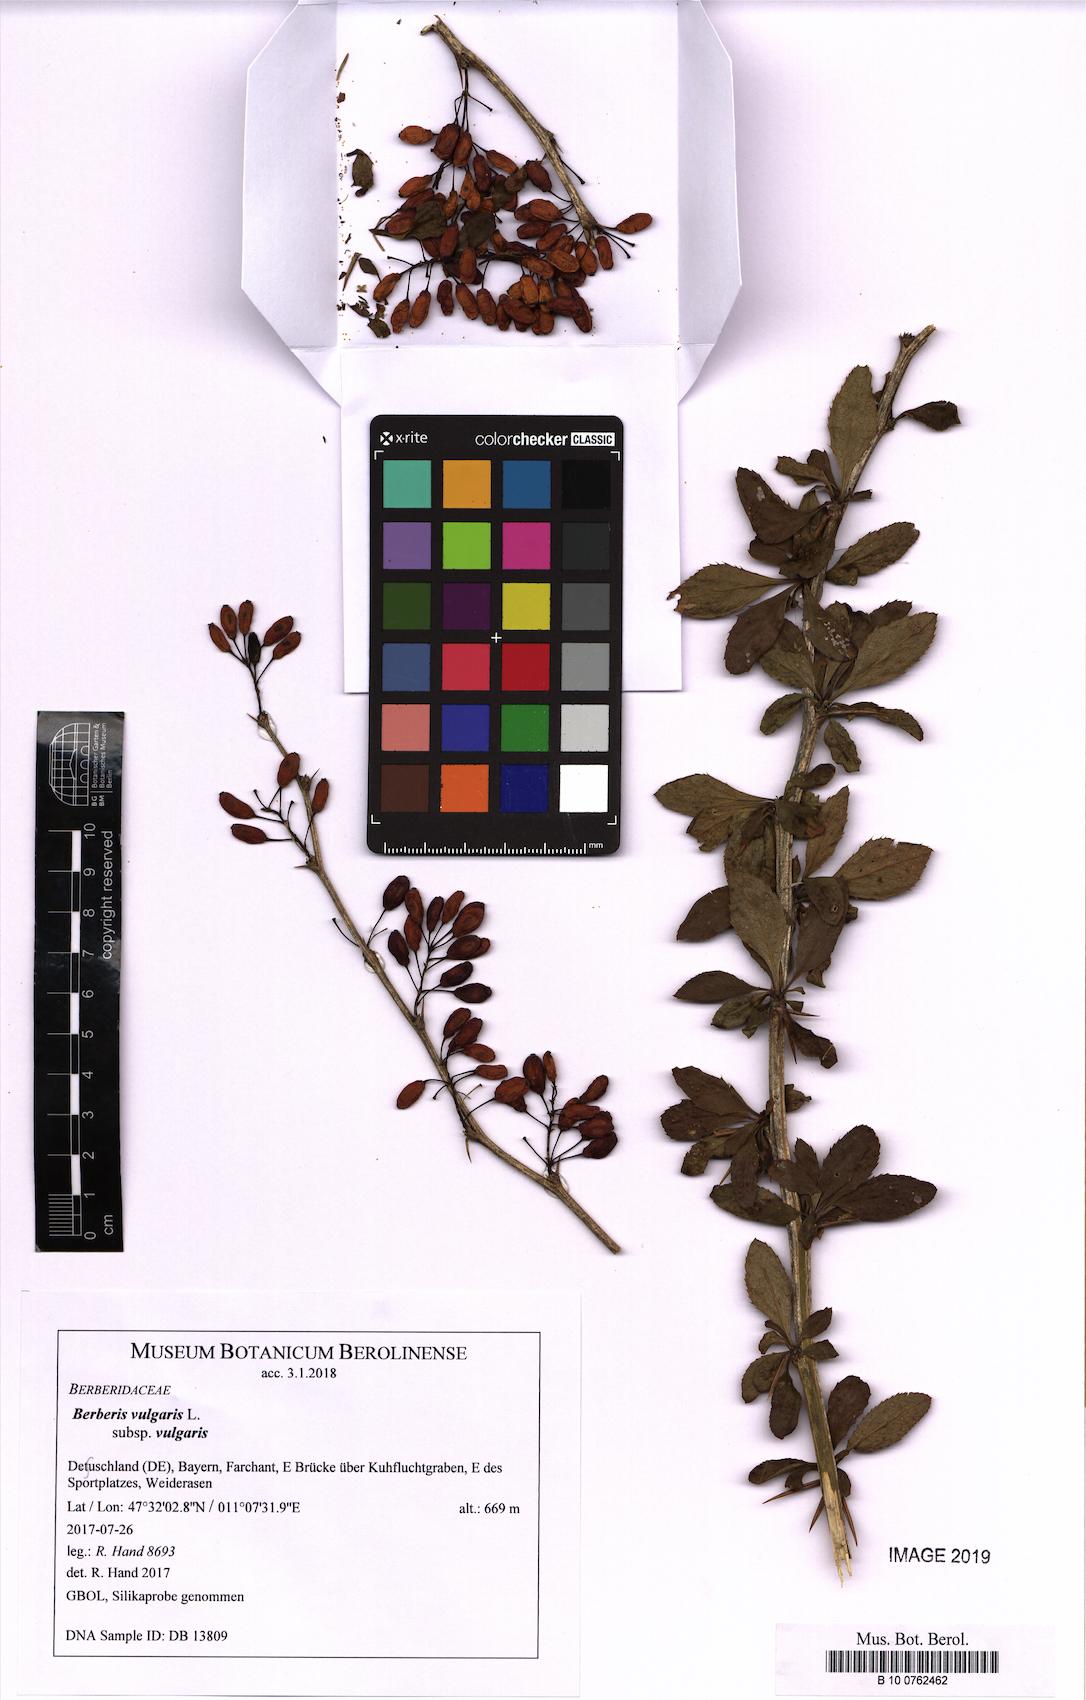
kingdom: Plantae
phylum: Tracheophyta
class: Magnoliopsida
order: Ranunculales
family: Berberidaceae
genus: Berberis
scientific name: Berberis vulgaris
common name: Barberry
